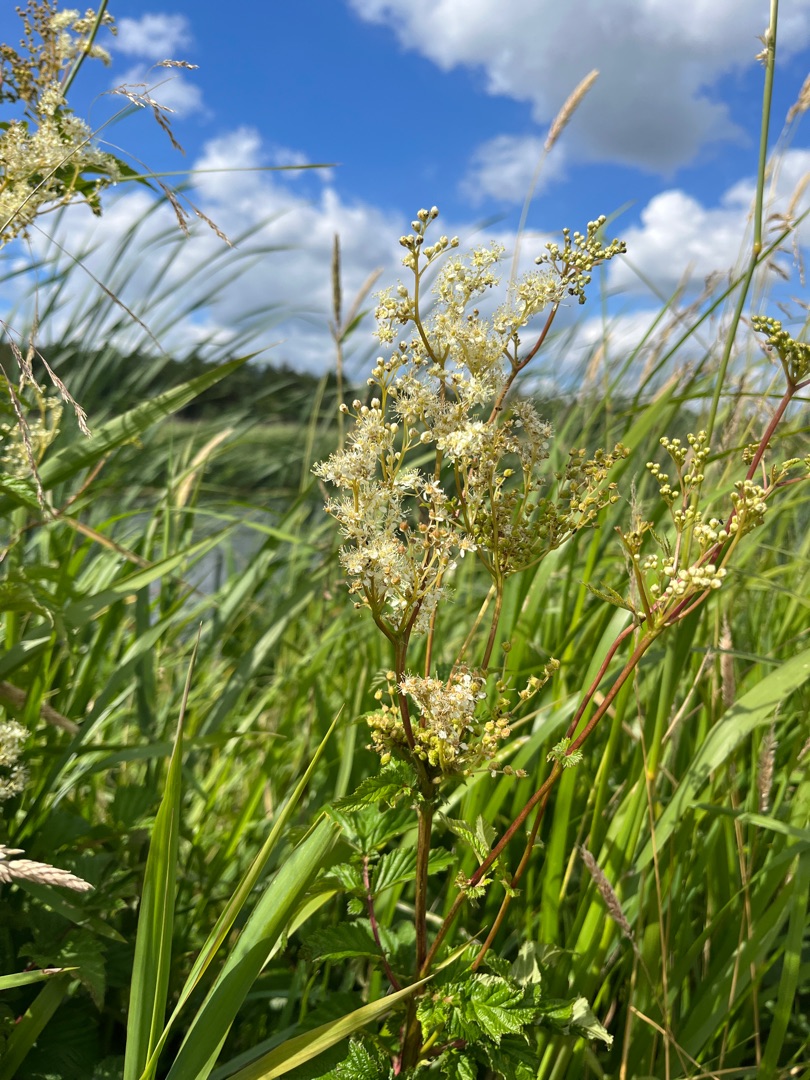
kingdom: Plantae
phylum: Tracheophyta
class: Magnoliopsida
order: Rosales
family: Rosaceae
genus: Filipendula
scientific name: Filipendula ulmaria
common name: Almindelig mjødurt
